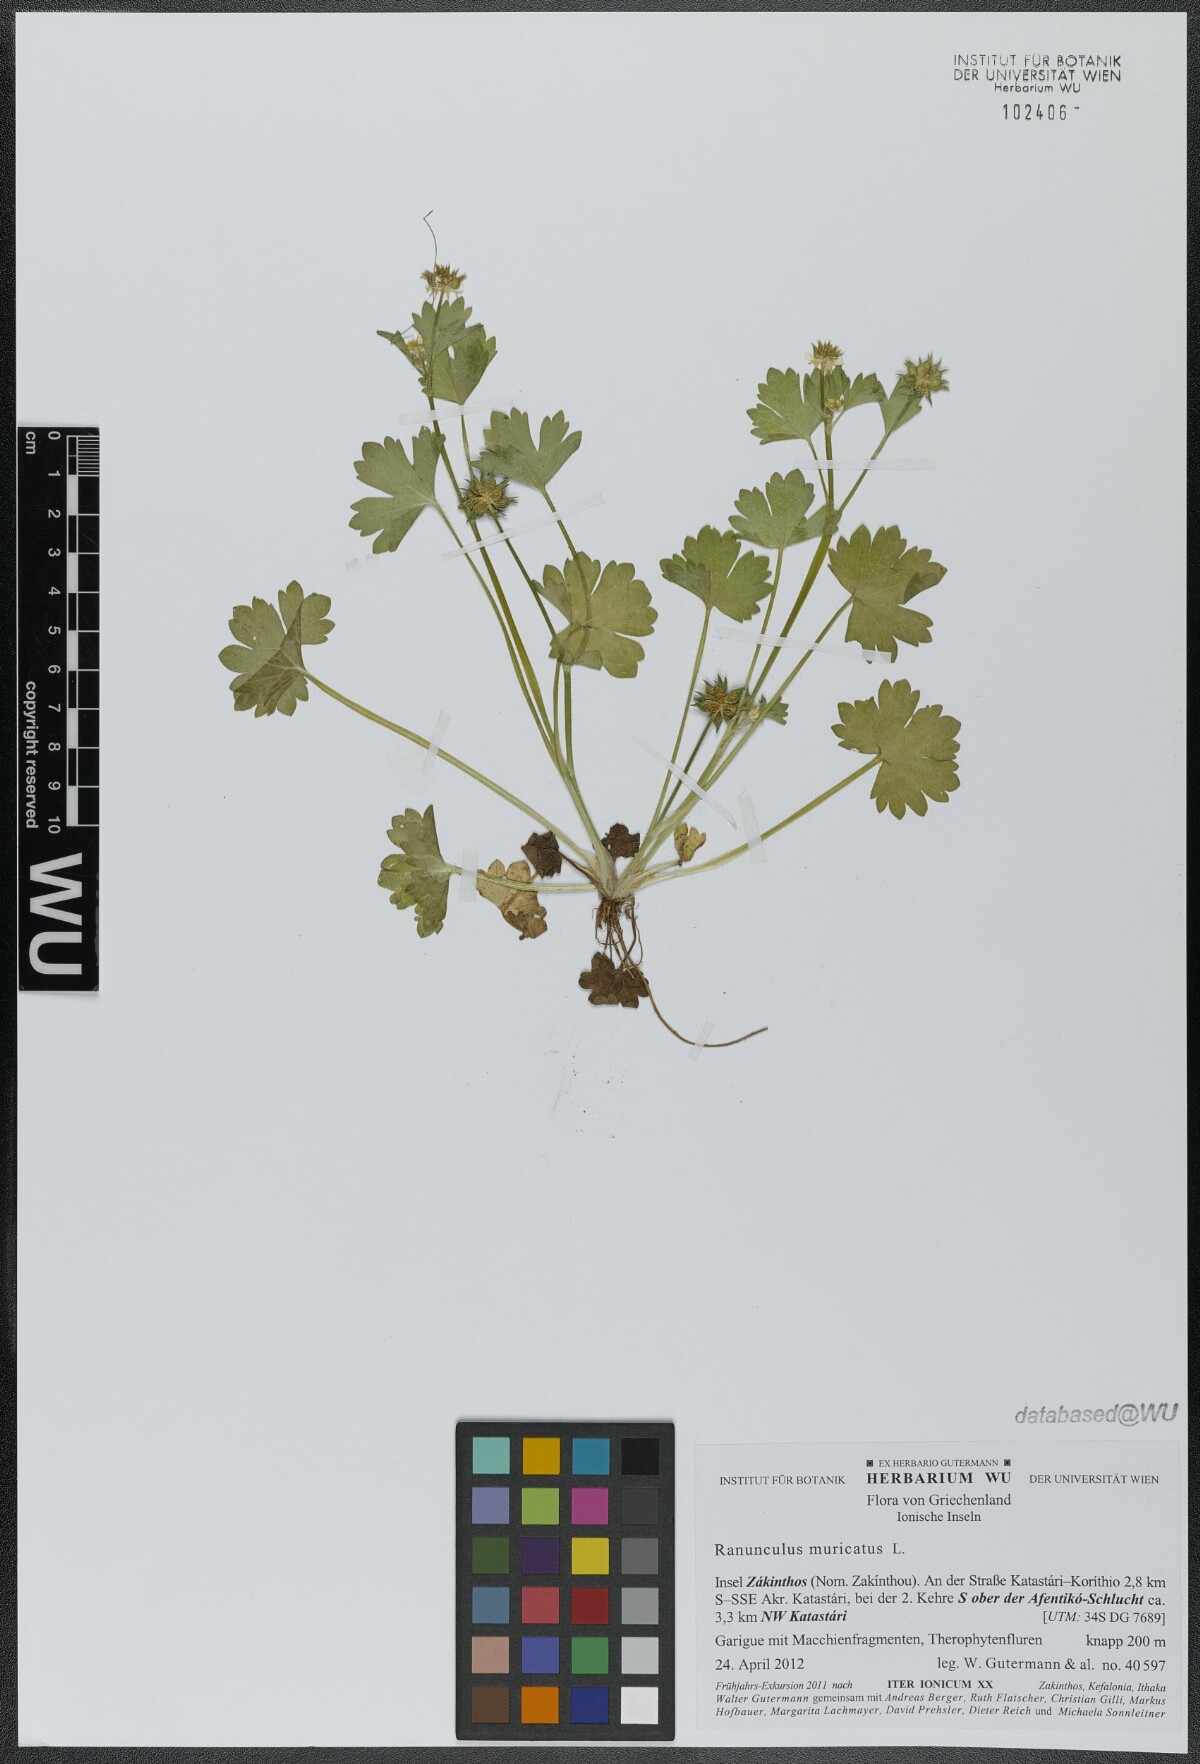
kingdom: Plantae
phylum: Tracheophyta
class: Magnoliopsida
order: Ranunculales
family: Ranunculaceae
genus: Ranunculus
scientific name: Ranunculus muricatus
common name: Rough-fruited buttercup
